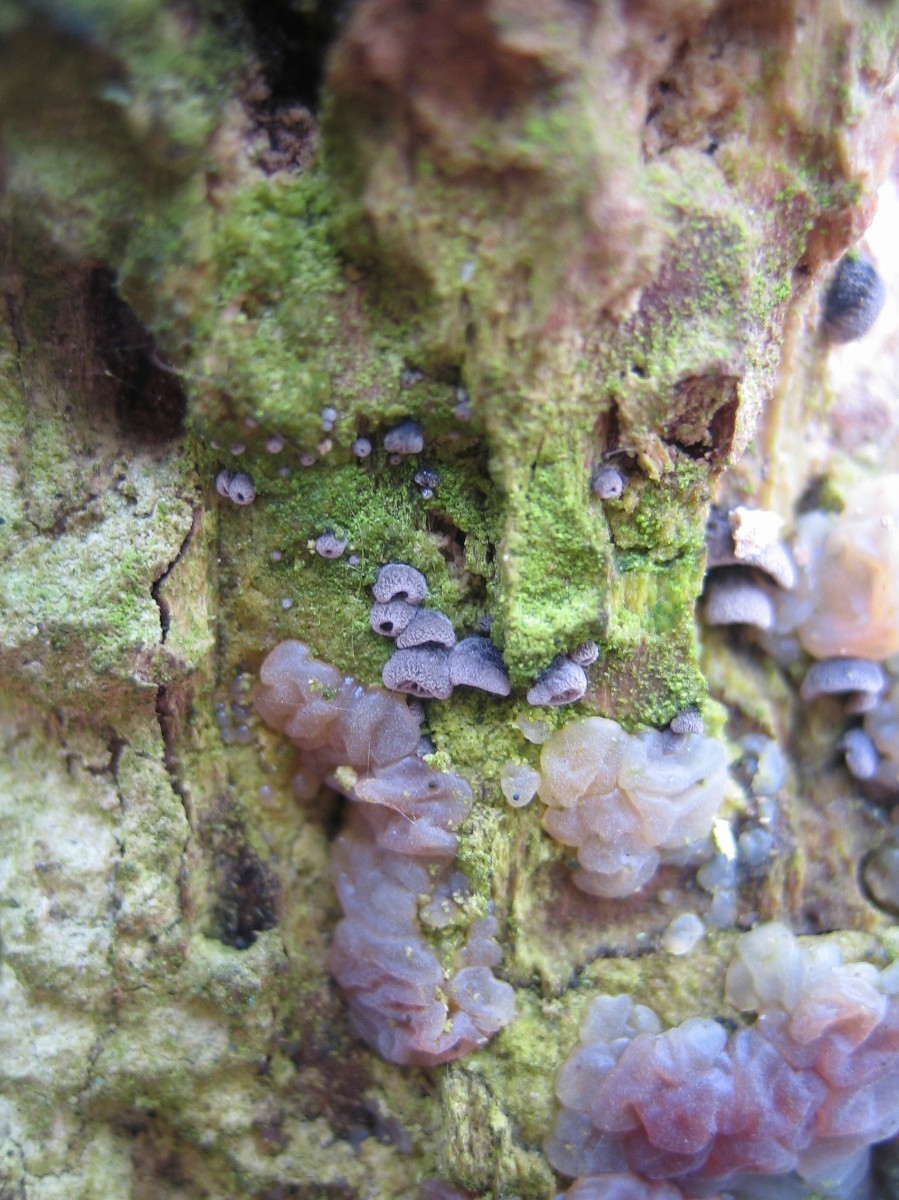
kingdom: Fungi
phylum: Basidiomycota
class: Agaricomycetes
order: Agaricales
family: Pleurotaceae
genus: Resupinatus
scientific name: Resupinatus applicatus
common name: lysfiltet barkhat
